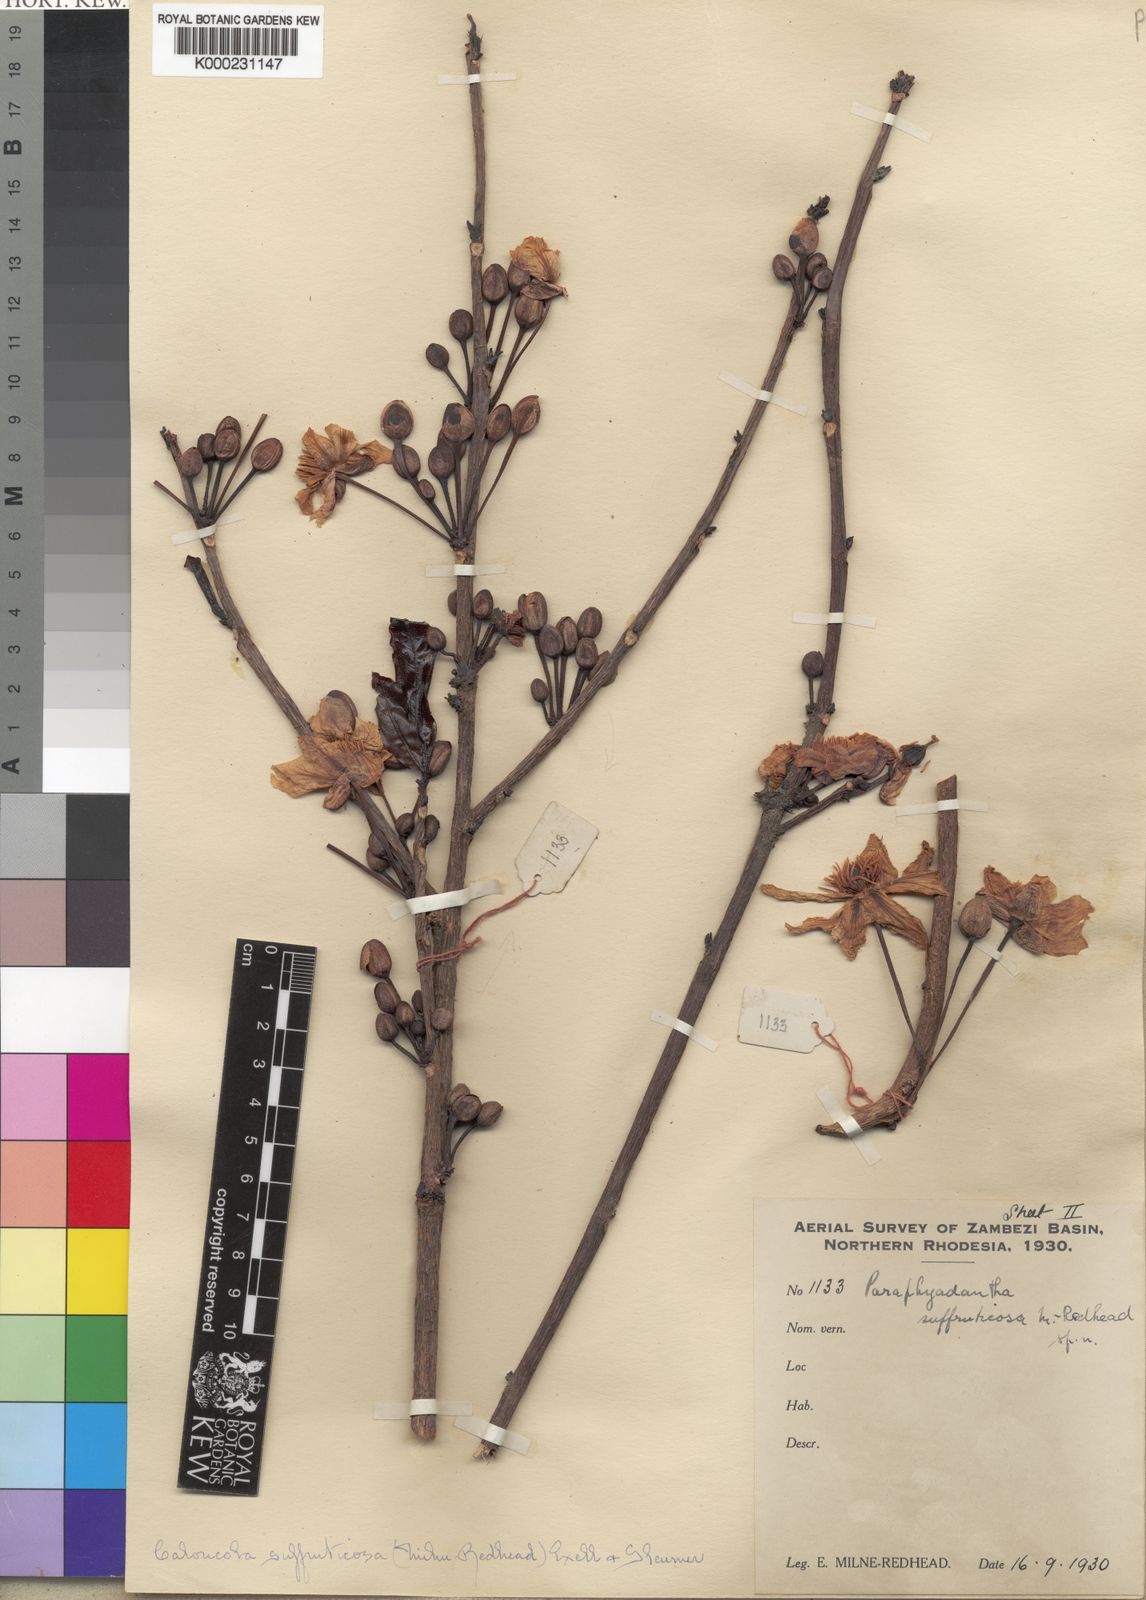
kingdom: Plantae
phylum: Tracheophyta
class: Magnoliopsida
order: Malpighiales
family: Achariaceae
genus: Caloncoba
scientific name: Caloncoba suffruticosa
